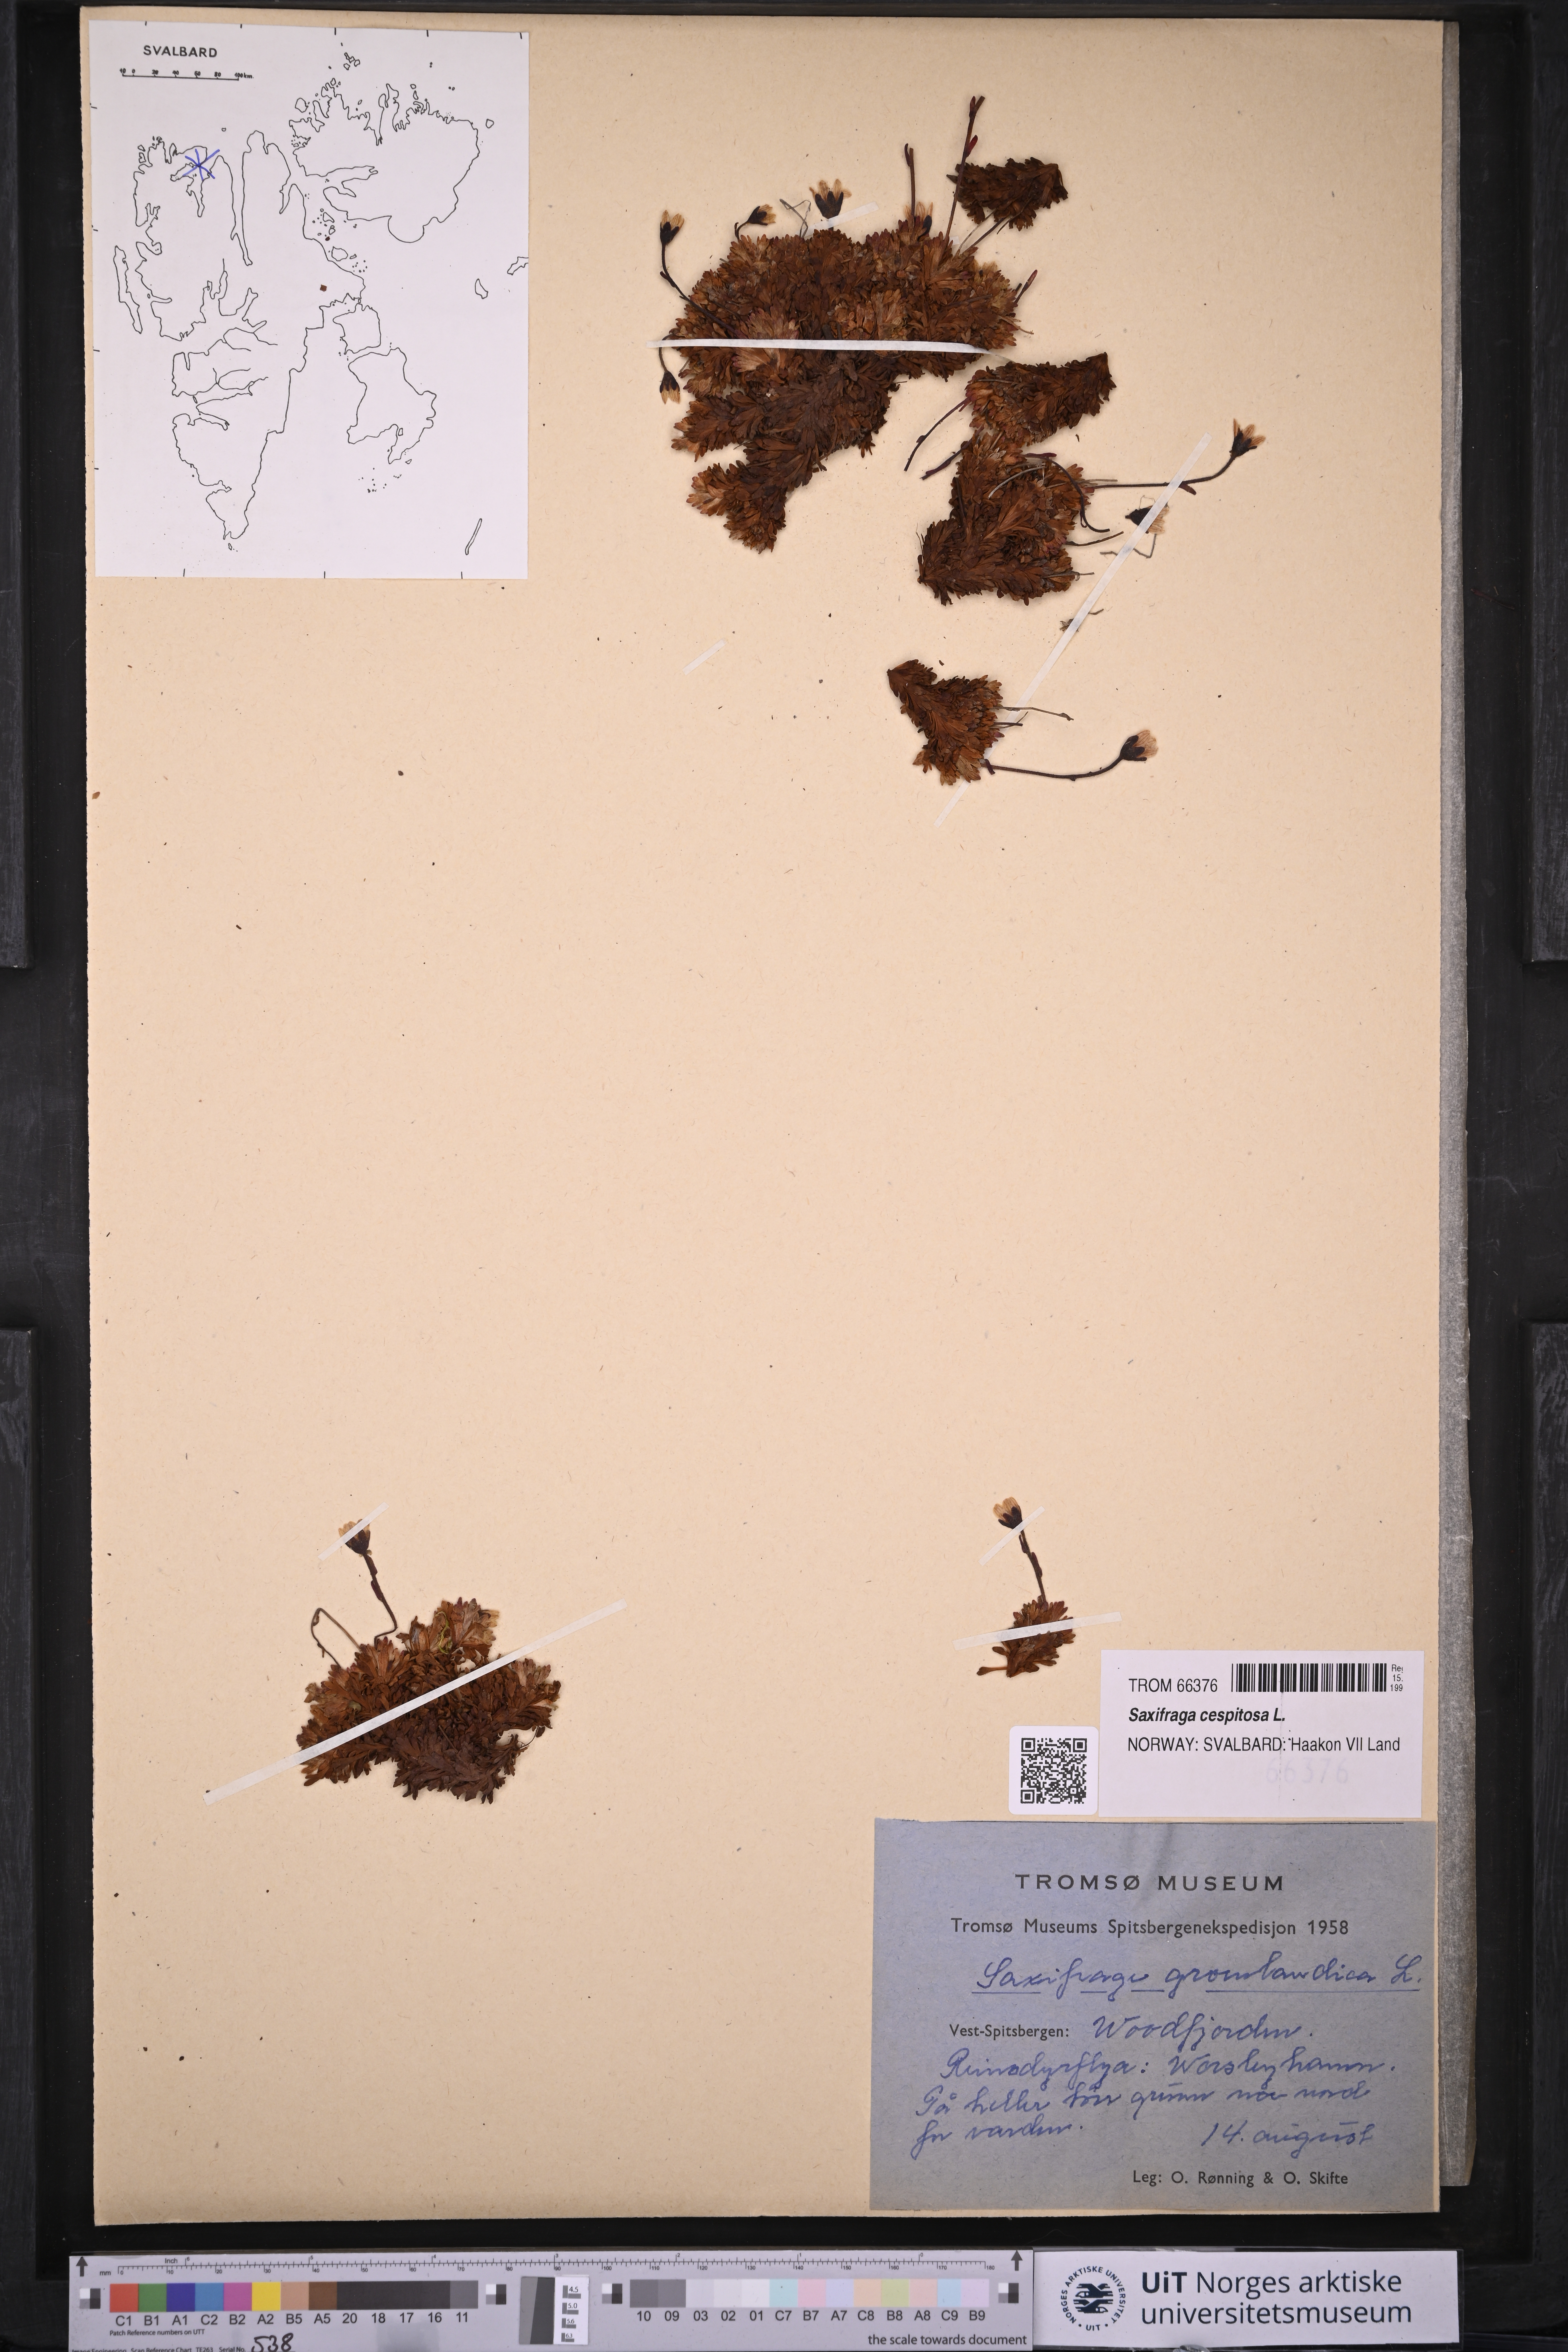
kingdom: Plantae
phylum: Tracheophyta
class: Magnoliopsida
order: Saxifragales
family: Saxifragaceae
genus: Saxifraga
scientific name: Saxifraga cespitosa
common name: Tufted saxifrage
